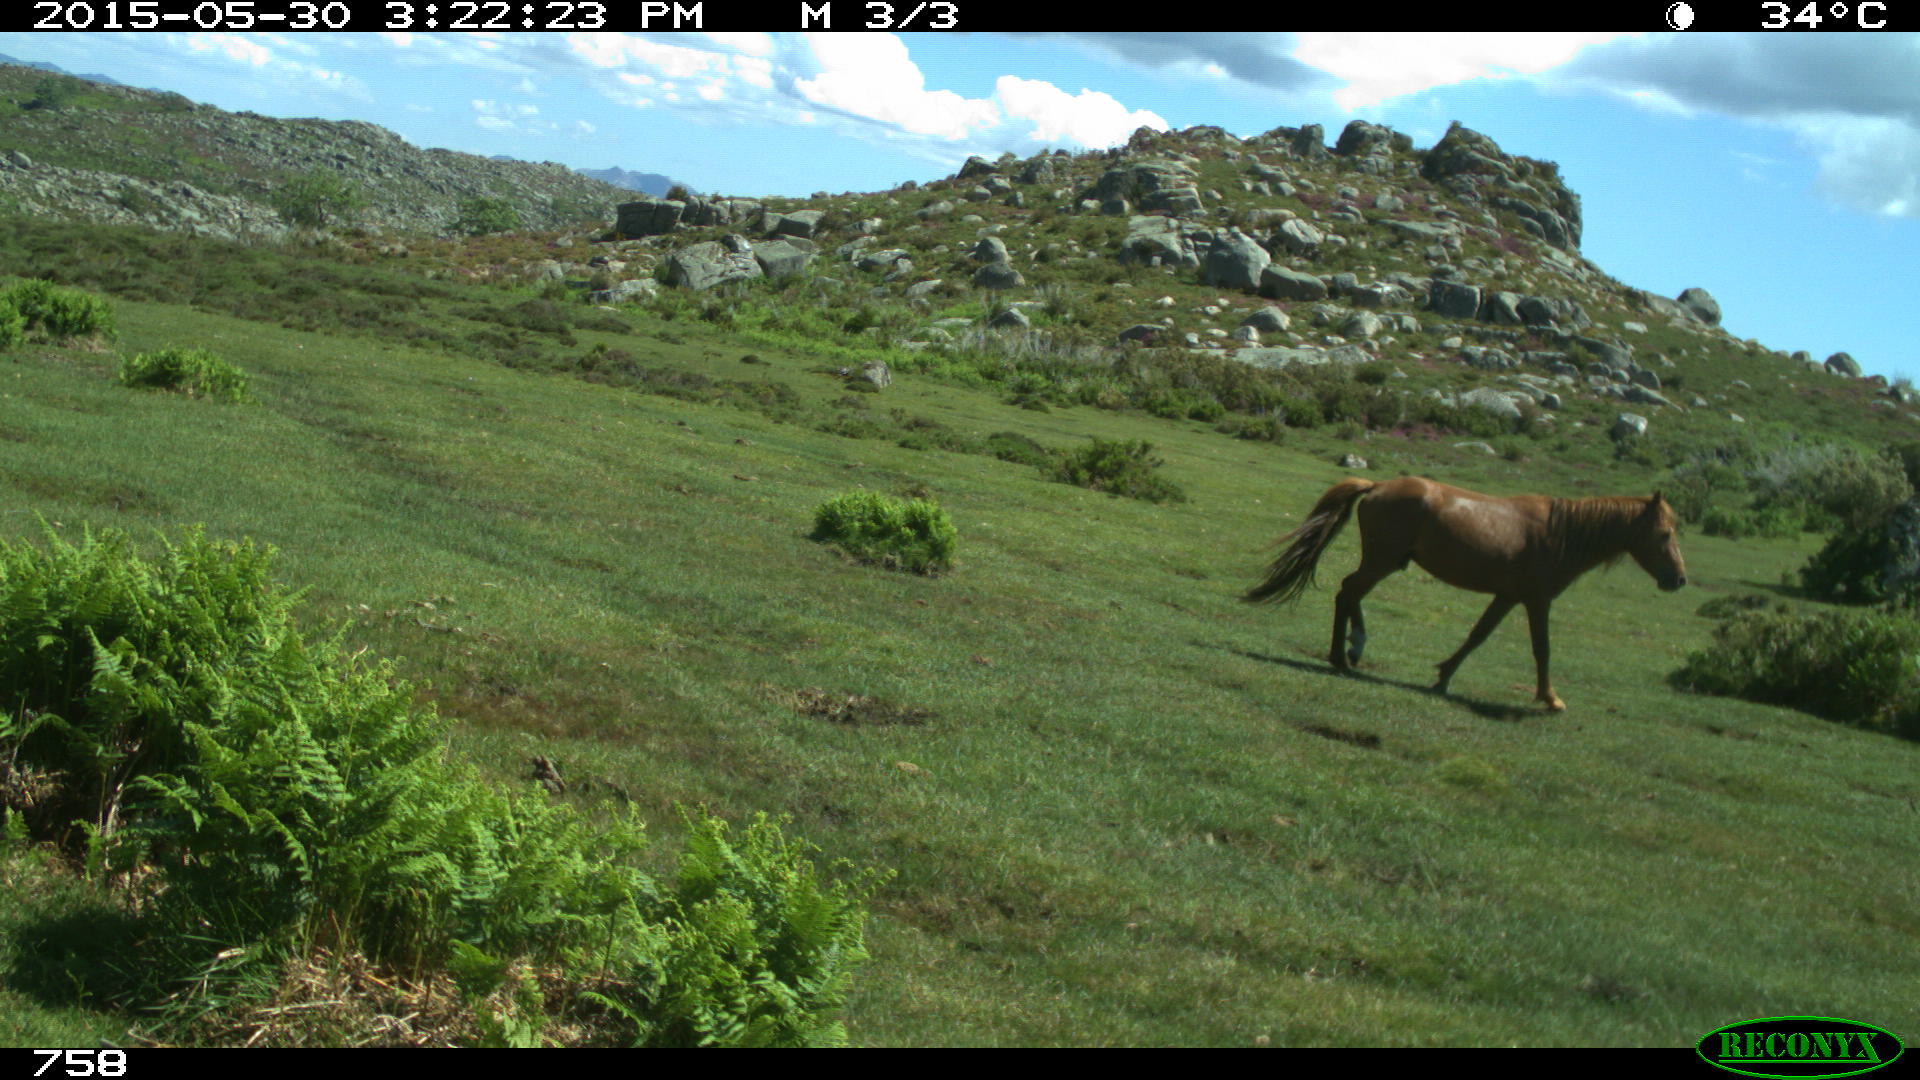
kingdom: Animalia
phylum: Chordata
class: Mammalia
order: Perissodactyla
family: Equidae
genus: Equus
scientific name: Equus caballus
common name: Horse
